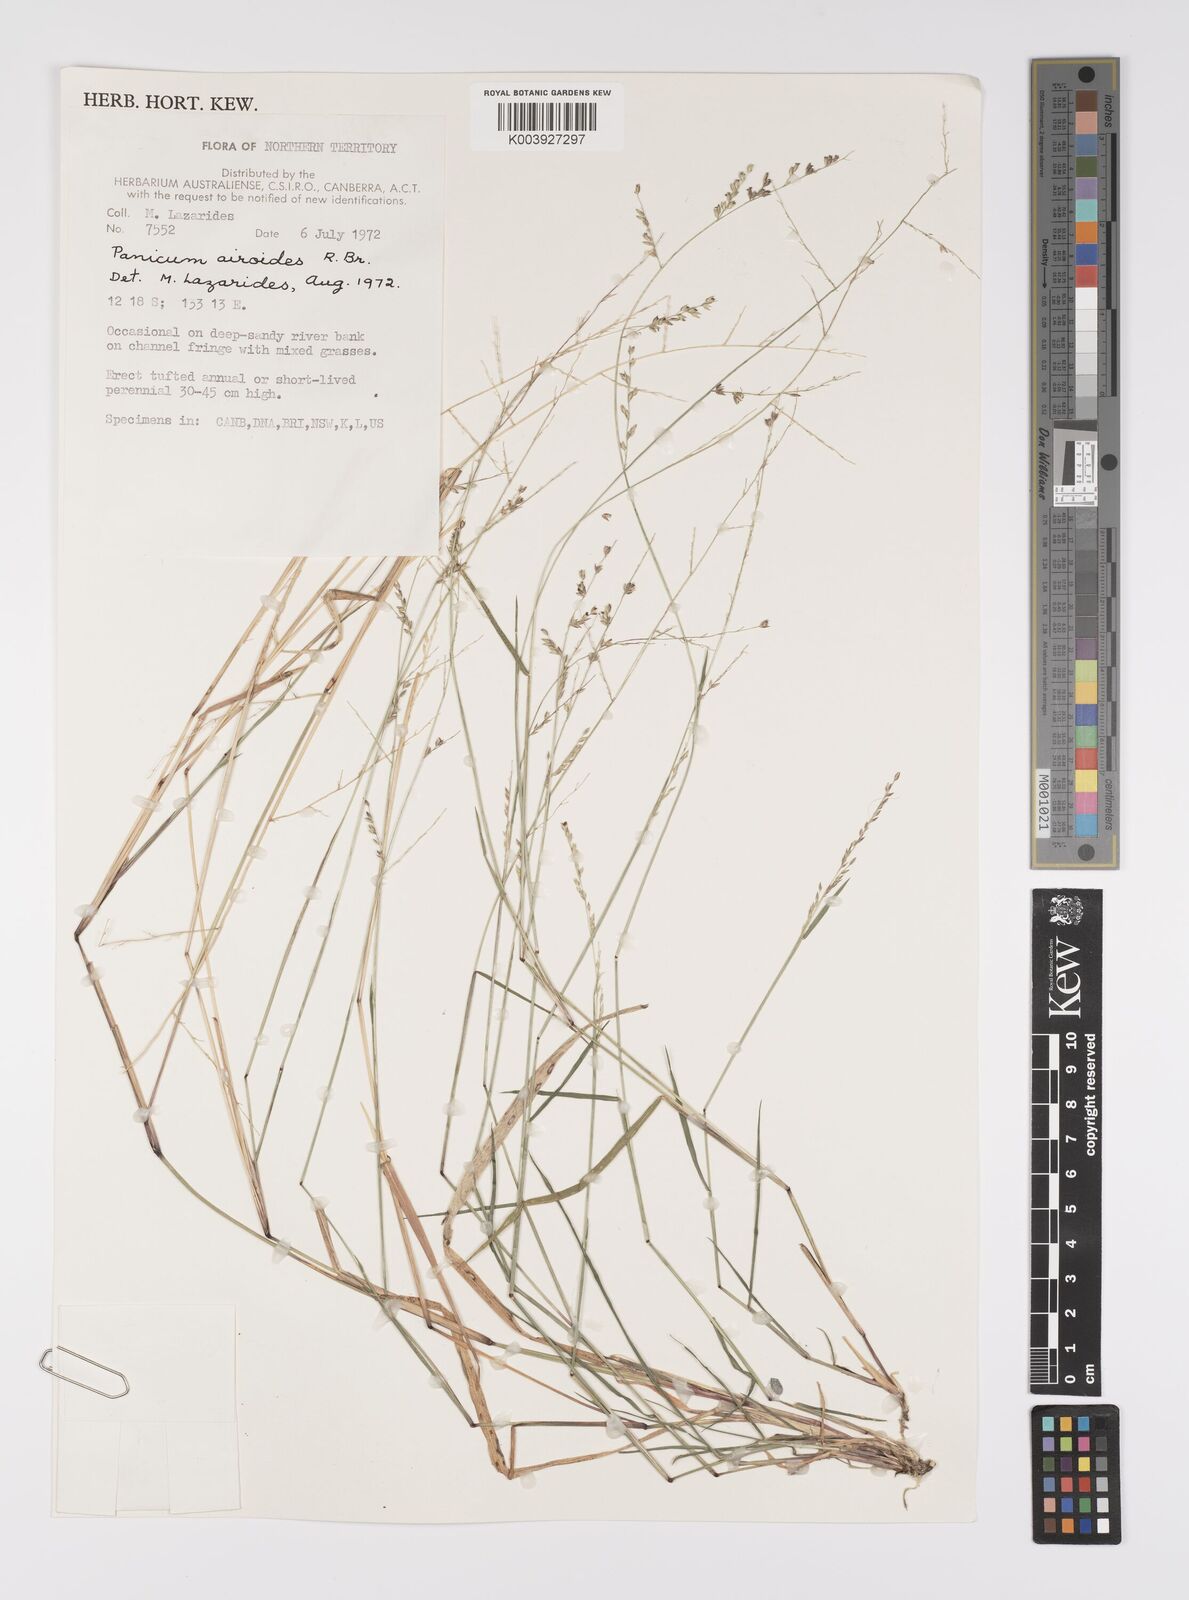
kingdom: Plantae
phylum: Tracheophyta
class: Liliopsida
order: Poales
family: Poaceae
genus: Whiteochloa
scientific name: Whiteochloa airoides
